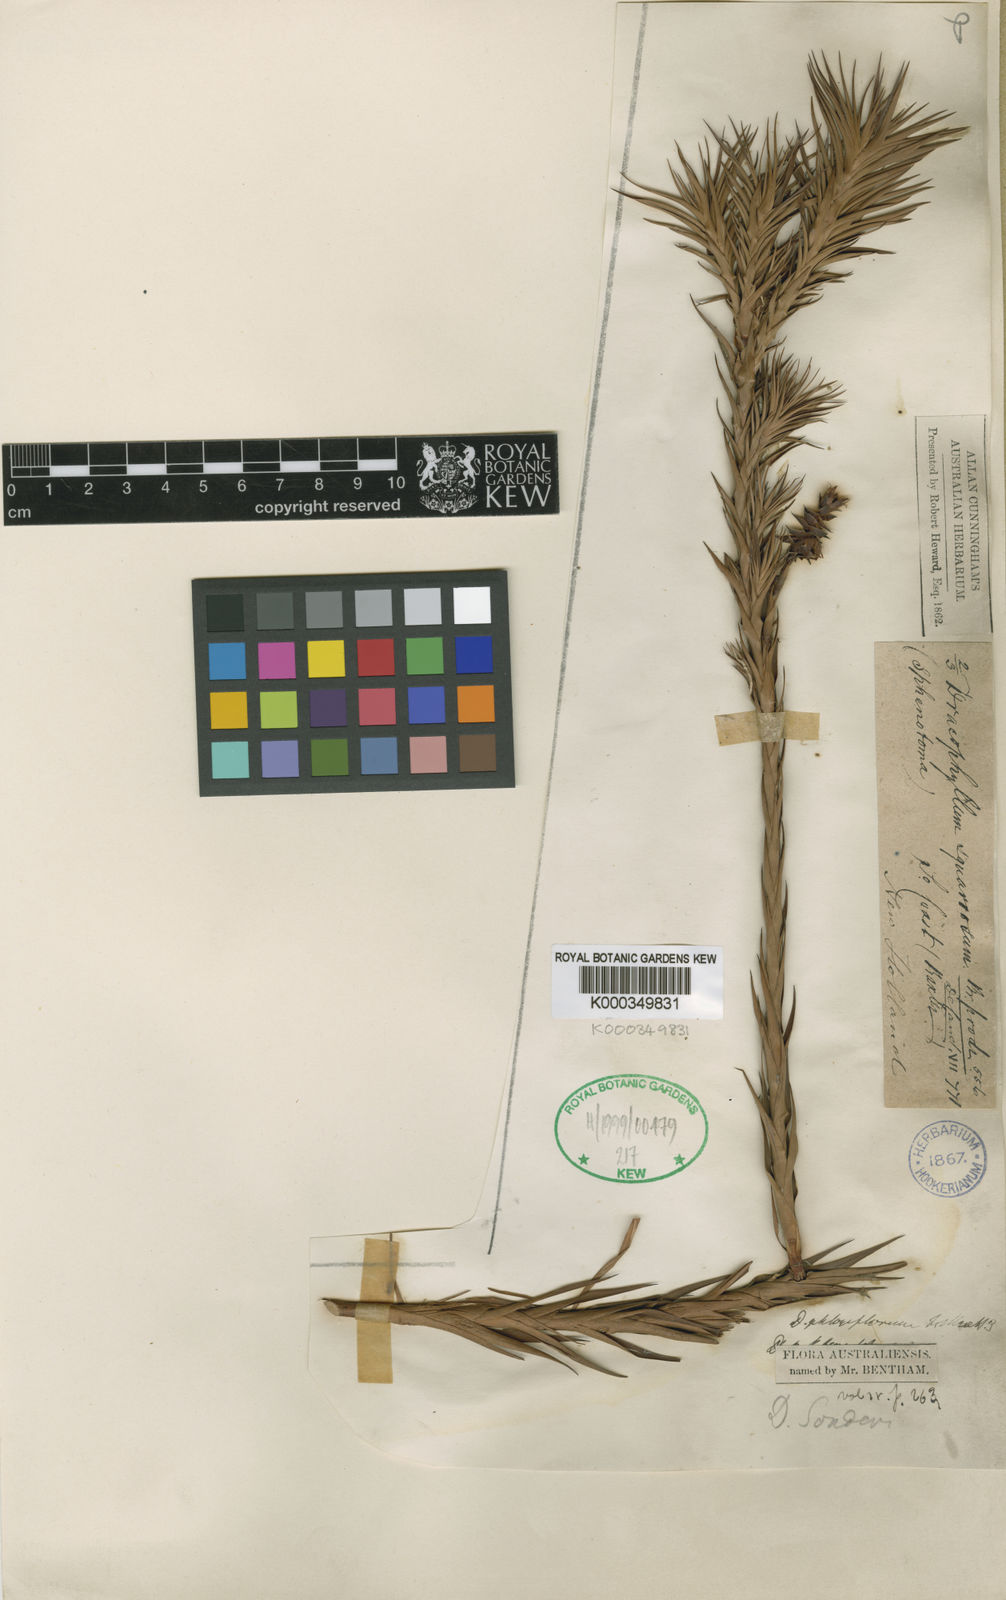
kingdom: Plantae
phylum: Tracheophyta
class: Magnoliopsida
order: Ericales
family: Ericaceae
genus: Dracophyllum
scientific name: Dracophyllum
